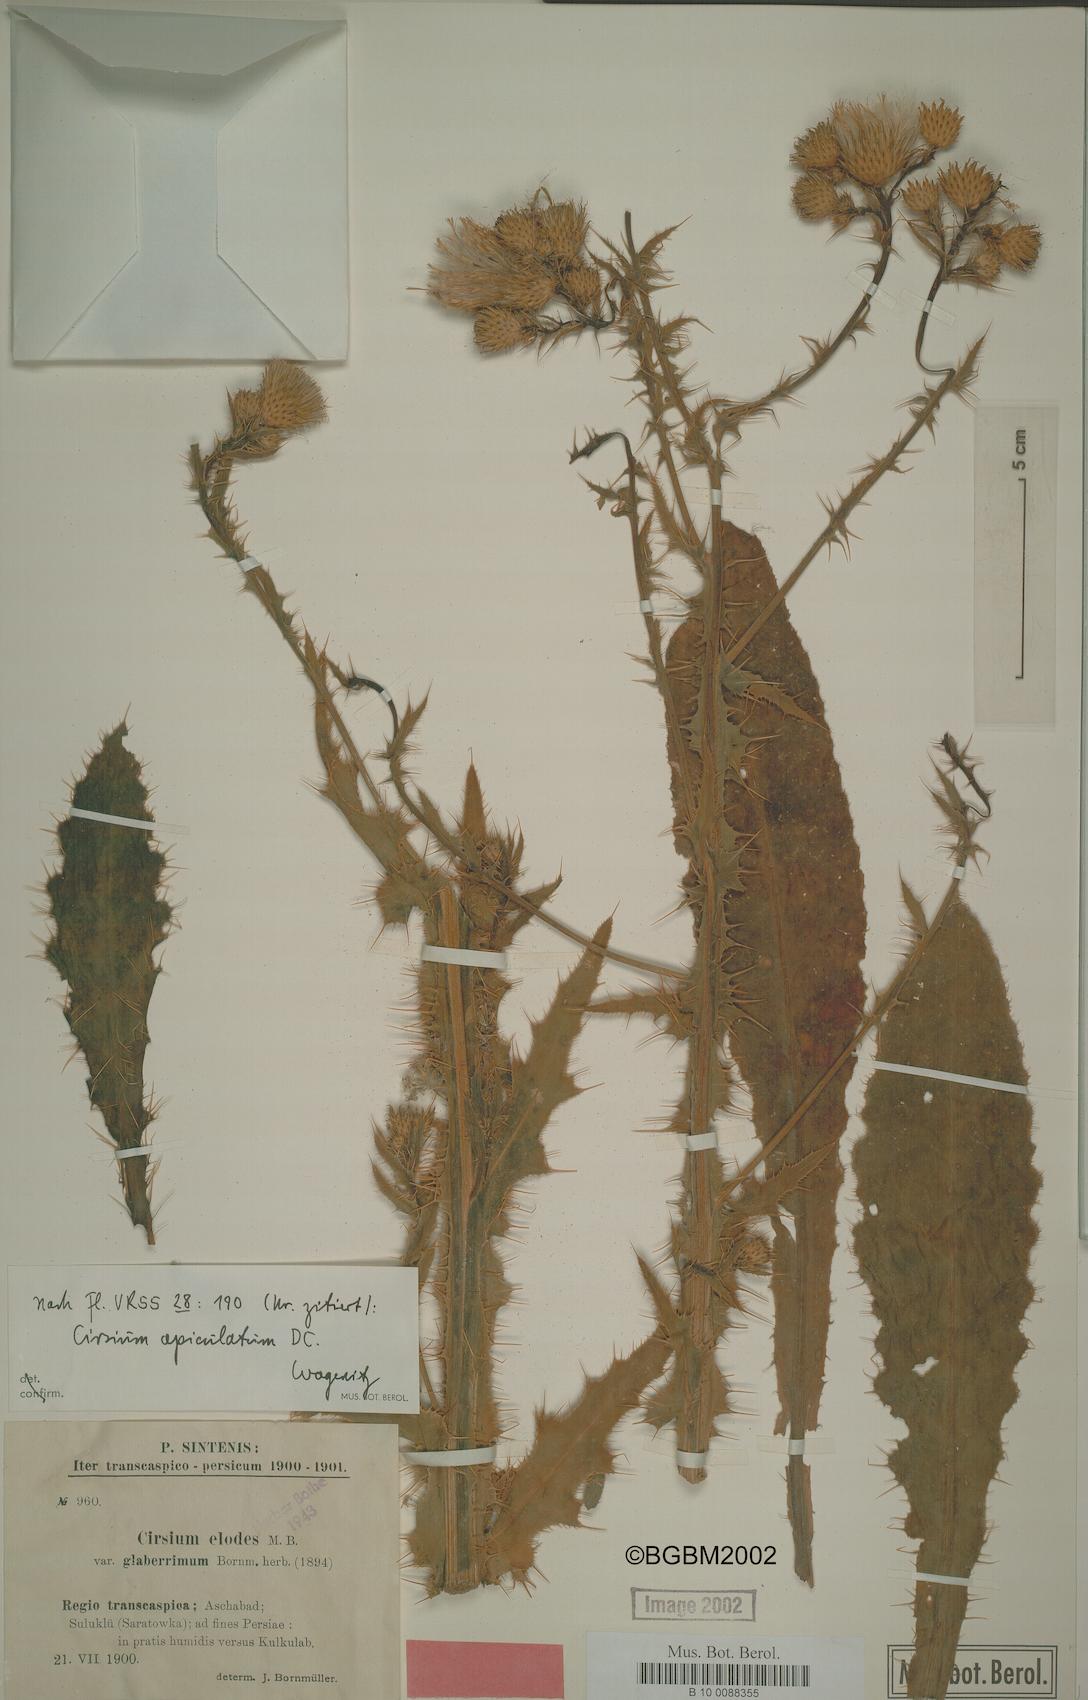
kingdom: Plantae
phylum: Tracheophyta
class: Magnoliopsida
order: Asterales
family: Asteraceae
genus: Cirsium
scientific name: Cirsium glaberrimum
